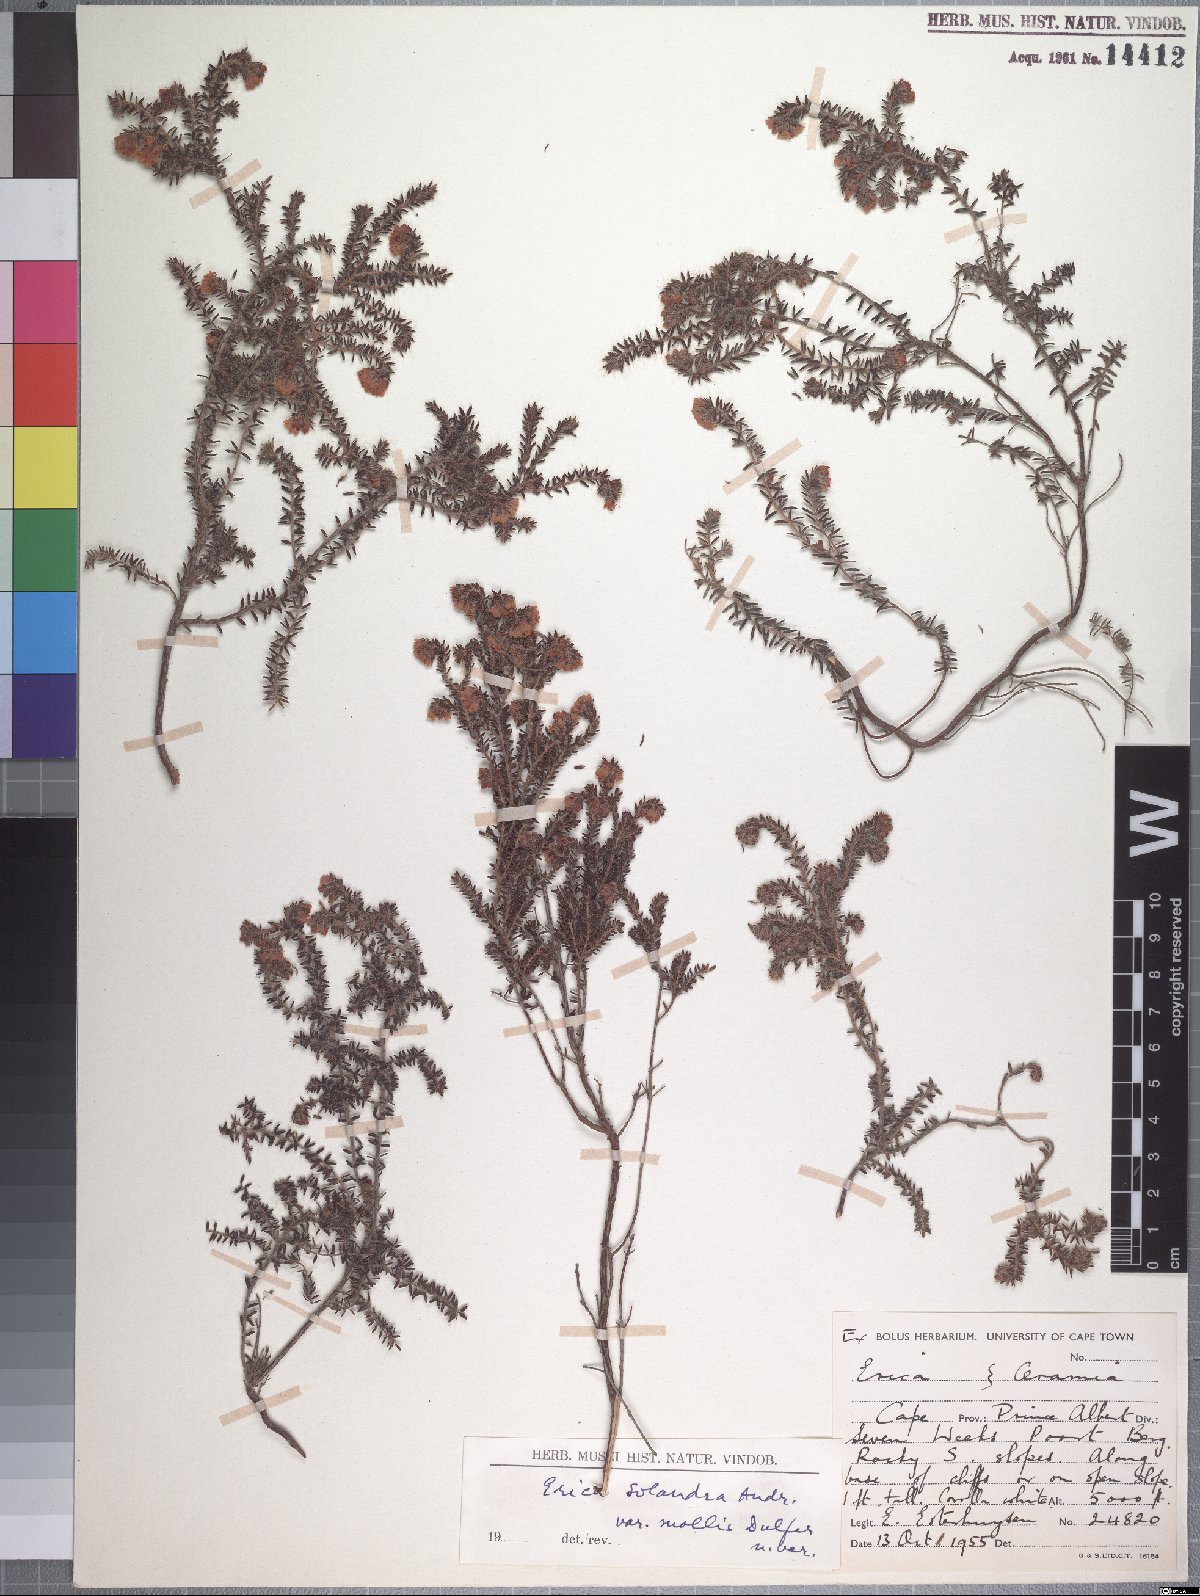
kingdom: Plantae
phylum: Tracheophyta
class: Magnoliopsida
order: Ericales
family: Ericaceae
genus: Erica
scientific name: Erica setulosa
